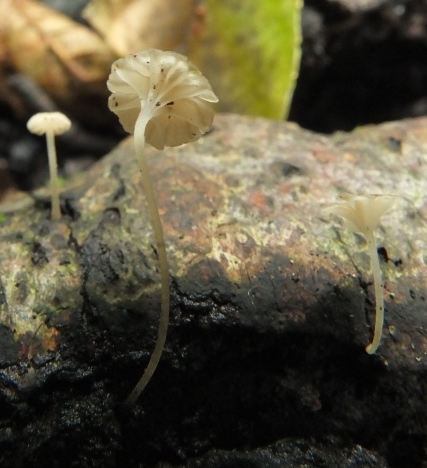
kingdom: Fungi
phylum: Basidiomycota
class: Agaricomycetes
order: Agaricales
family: Porotheleaceae
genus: Phloeomana
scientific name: Phloeomana speirea
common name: kvist-huesvamp
